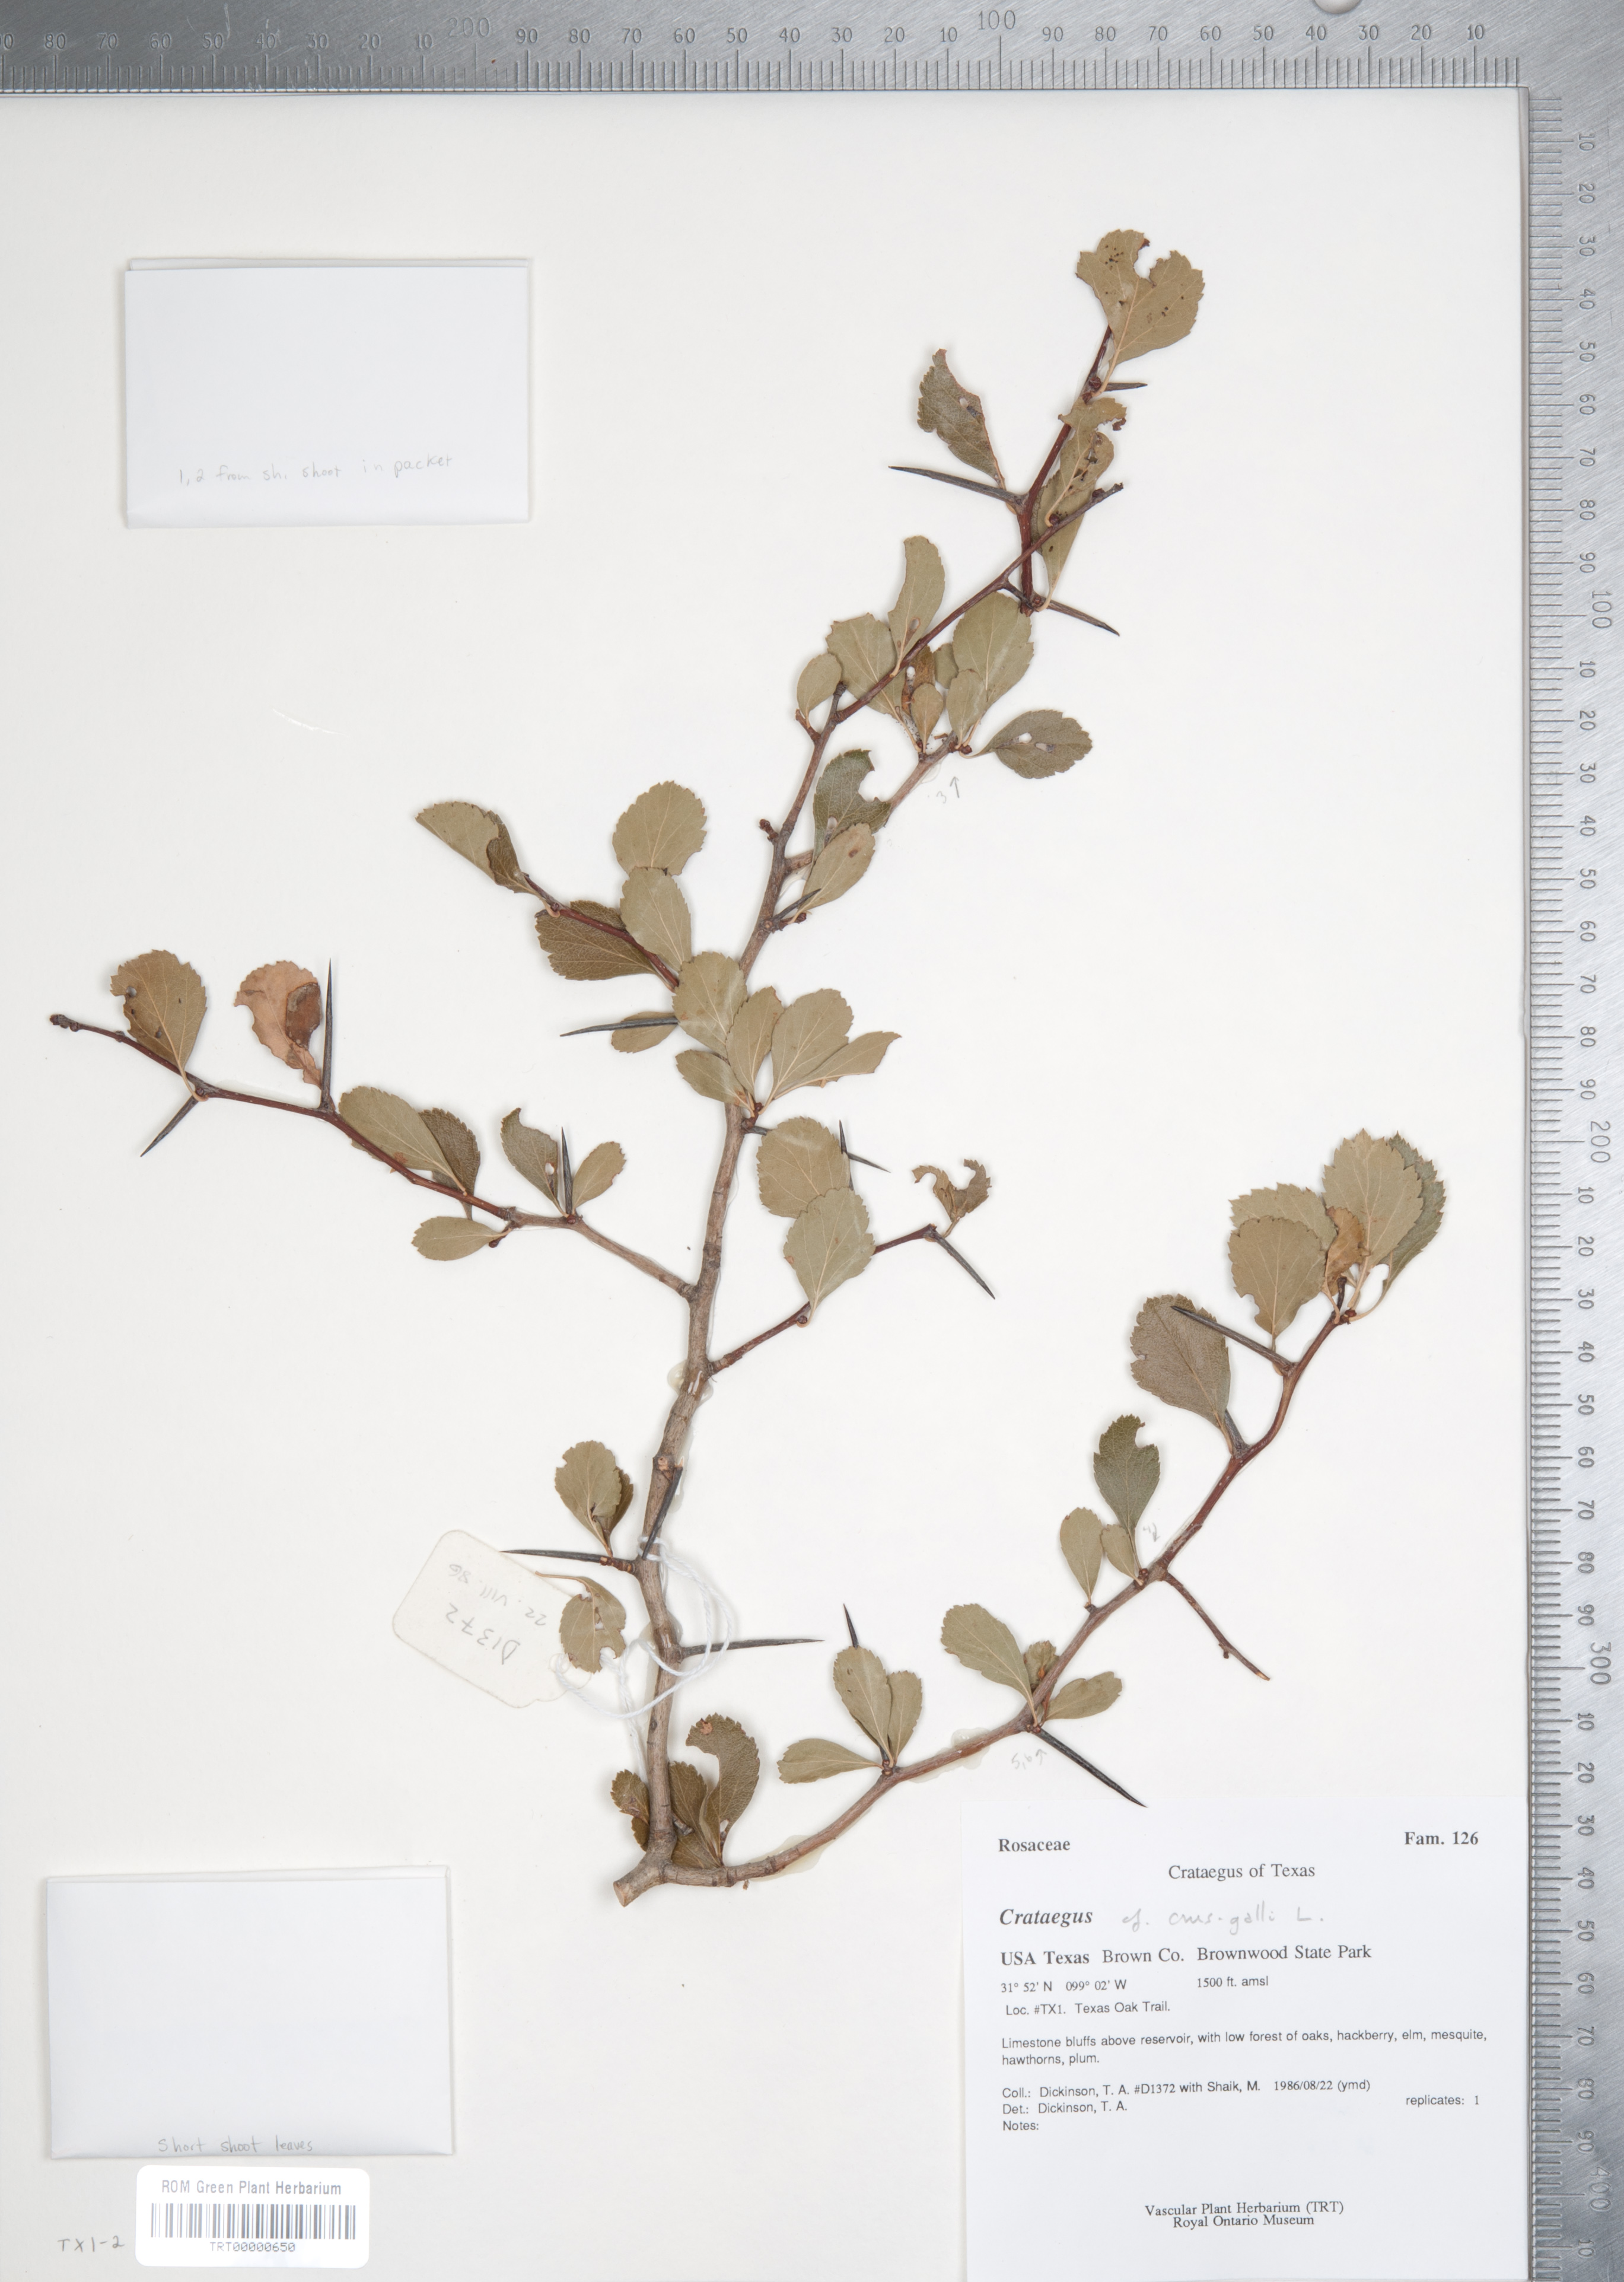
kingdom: Plantae
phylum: Tracheophyta
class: Magnoliopsida
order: Rosales
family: Rosaceae
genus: Crataegus
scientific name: Crataegus crus-galli
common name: Cockspurthorn
